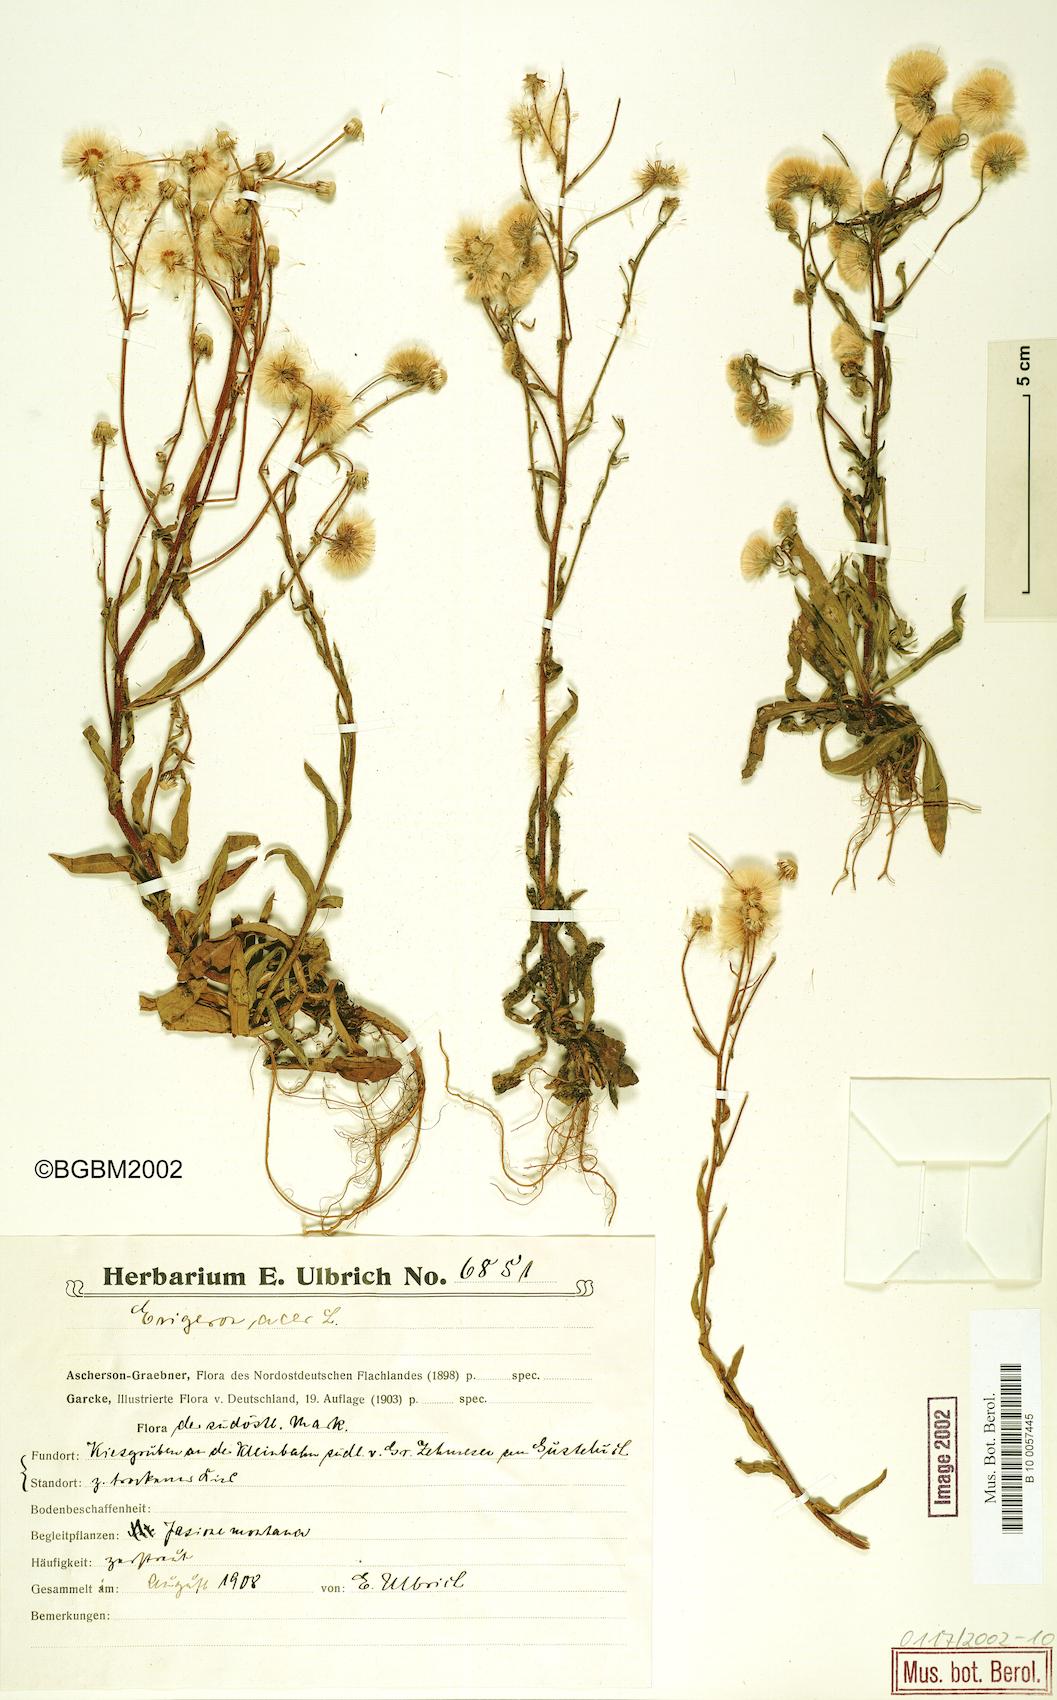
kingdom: Plantae
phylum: Tracheophyta
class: Magnoliopsida
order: Asterales
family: Asteraceae
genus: Erigeron
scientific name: Erigeron acris
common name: Blue fleabane
